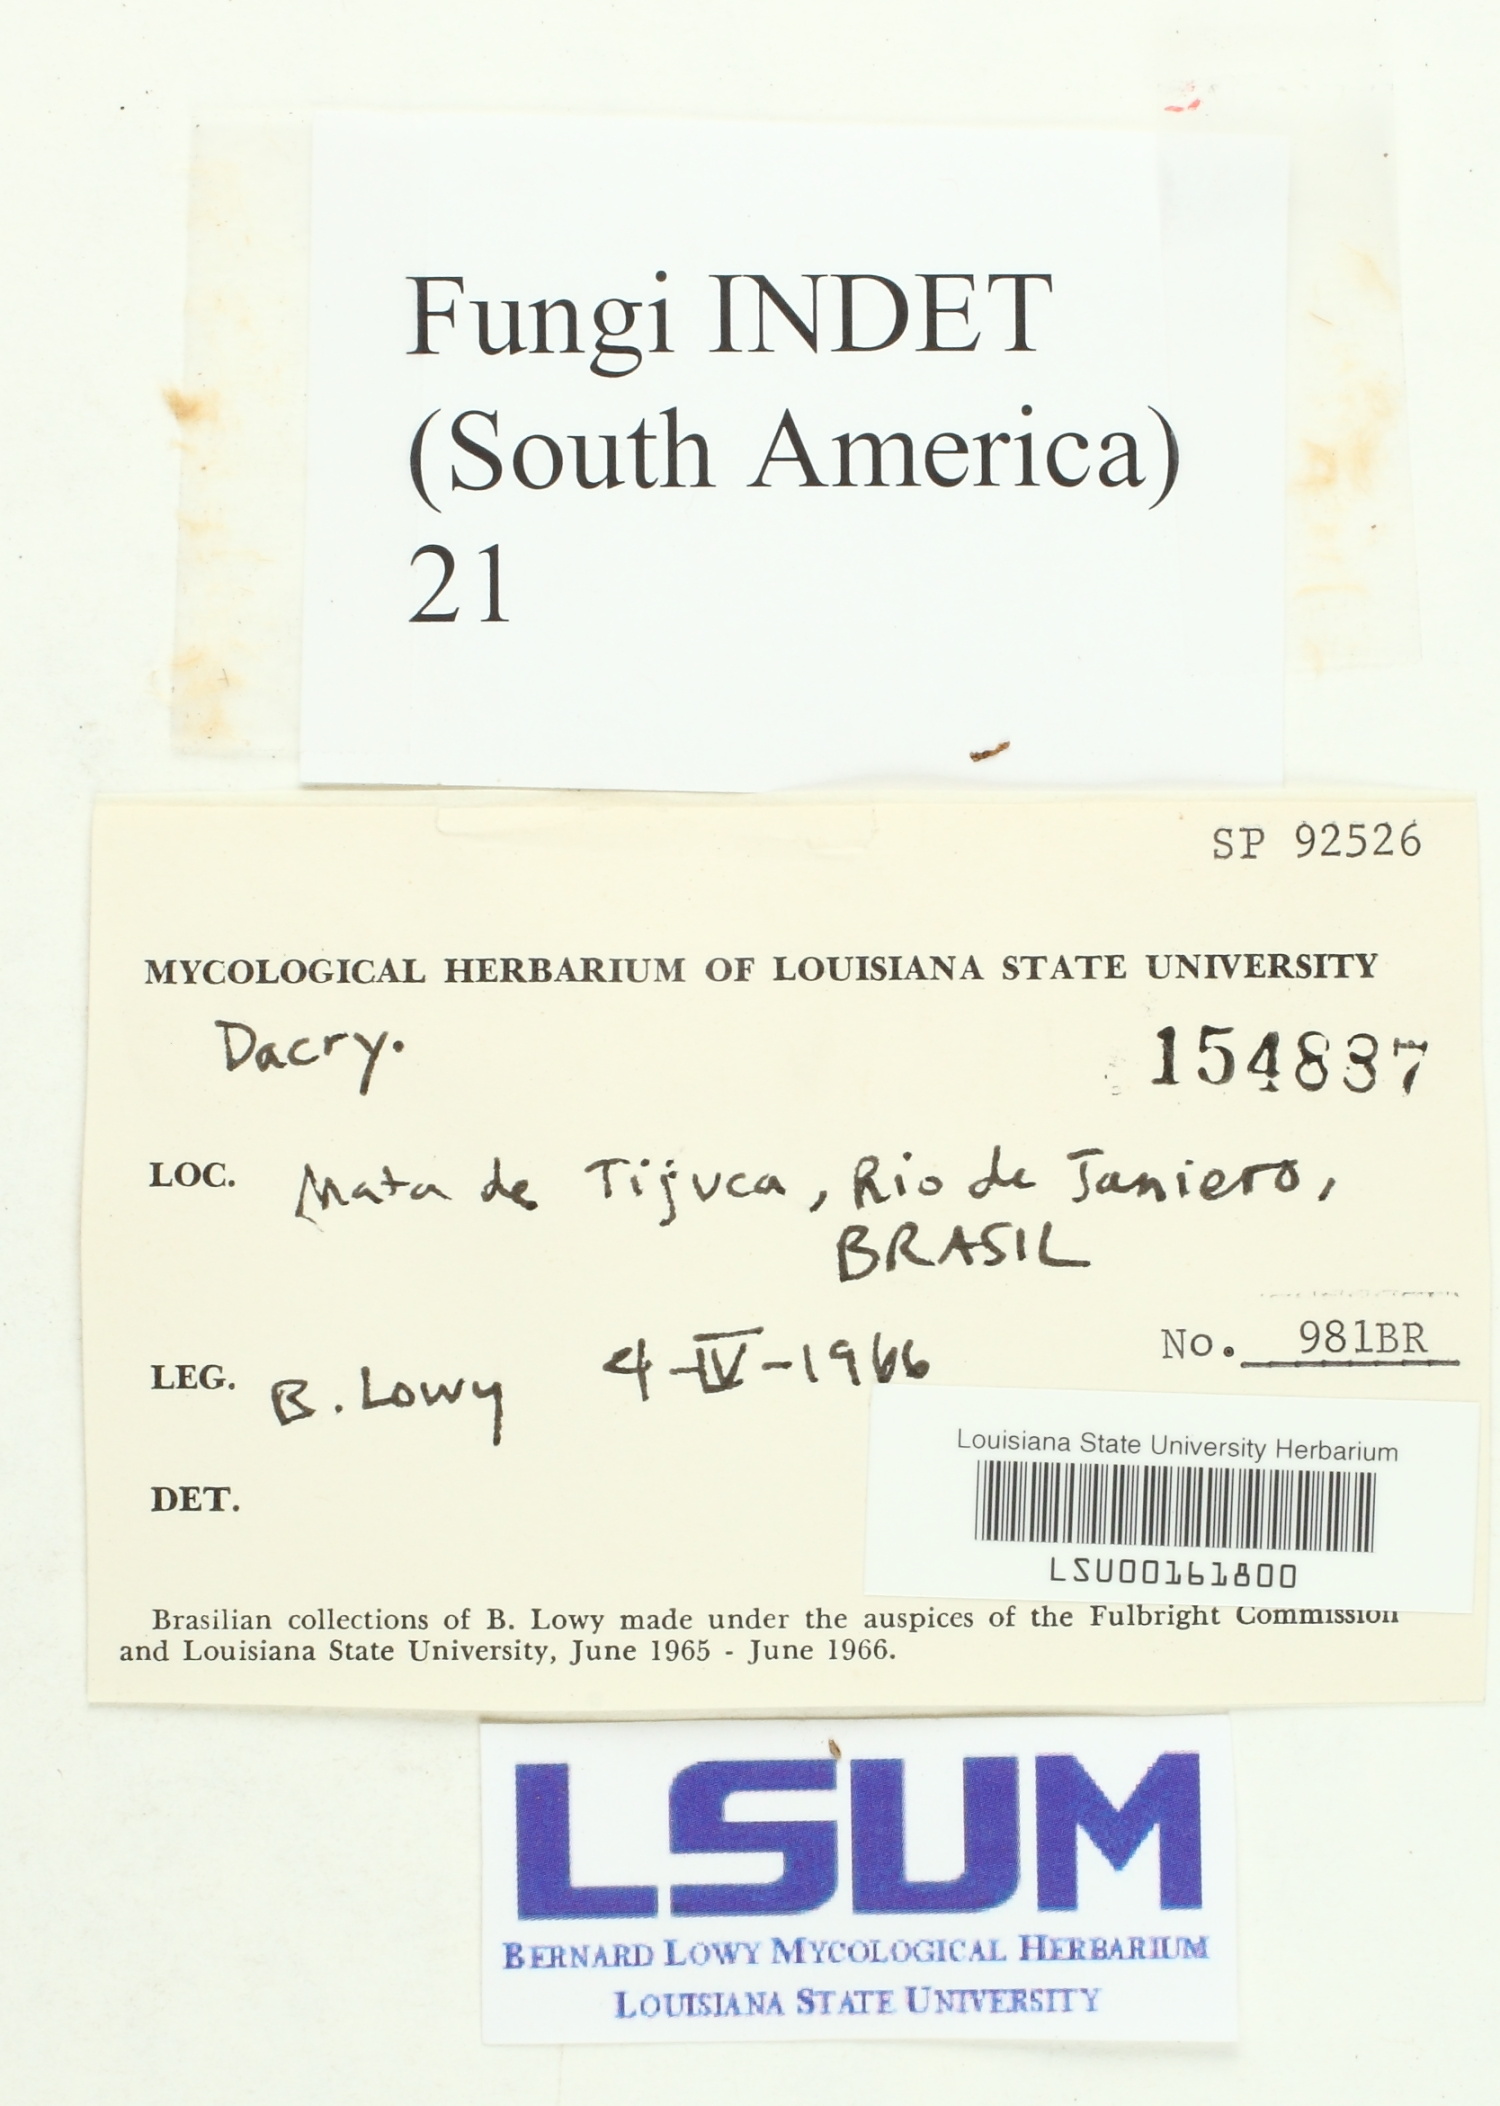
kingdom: Fungi
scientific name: Fungi
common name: Fungi
